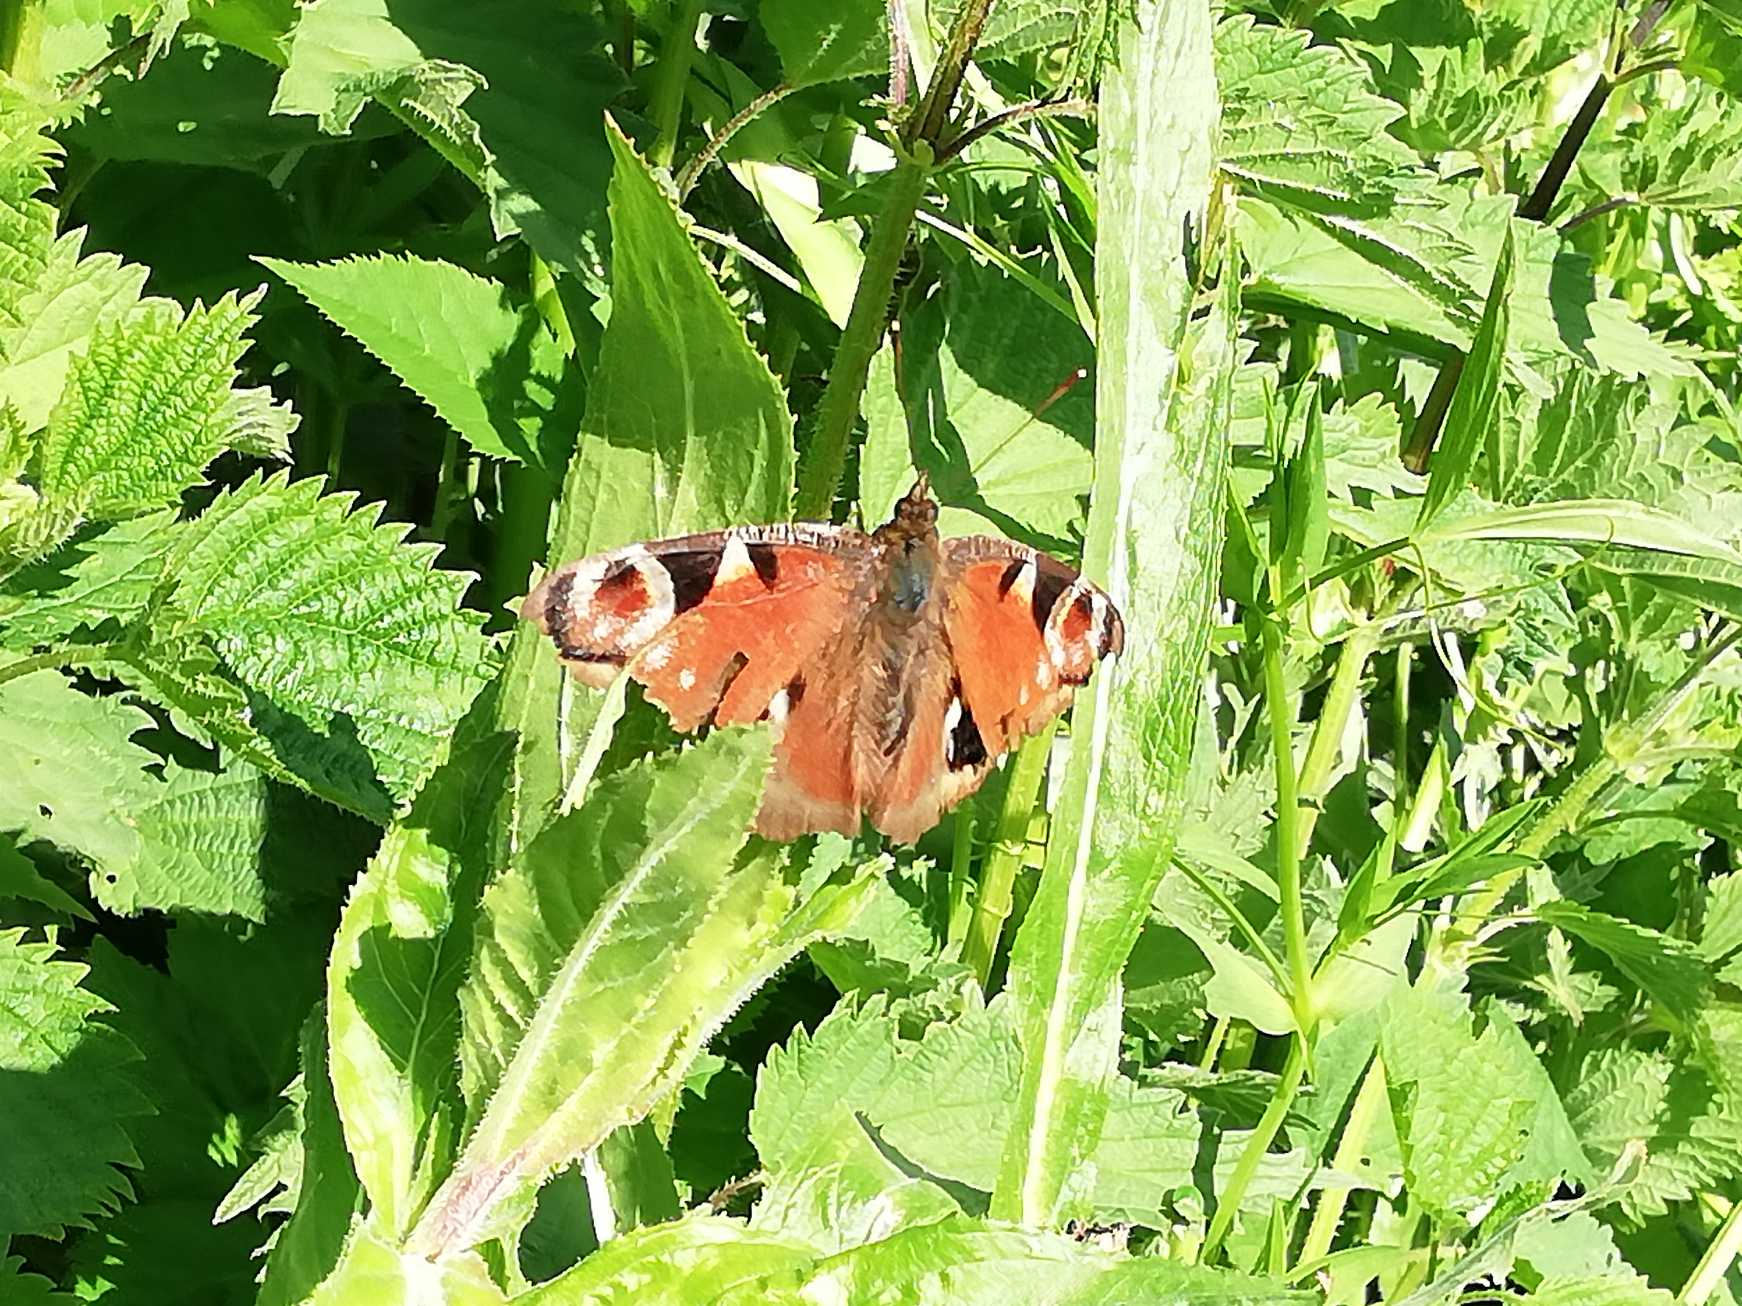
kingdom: Animalia
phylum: Arthropoda
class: Insecta
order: Lepidoptera
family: Nymphalidae
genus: Aglais
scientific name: Aglais io
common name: Dagpåfugleøje
